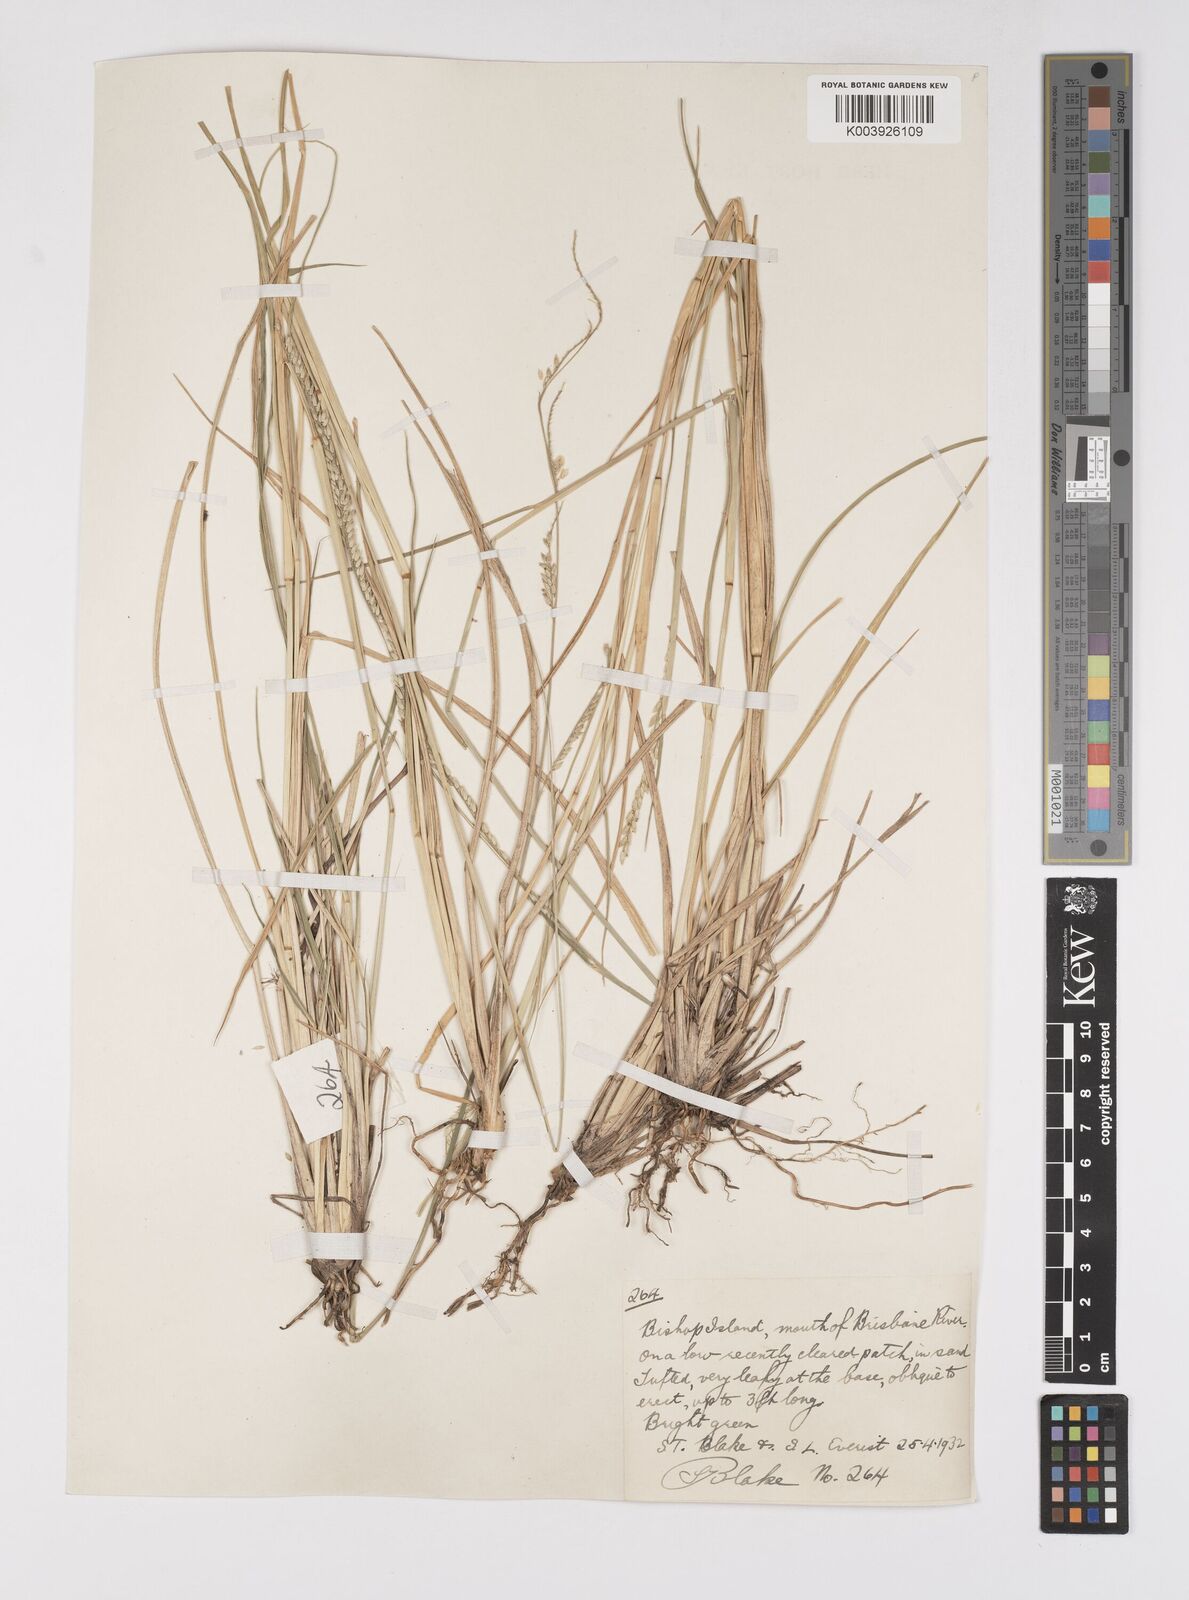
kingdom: Plantae
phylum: Tracheophyta
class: Liliopsida
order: Poales
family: Poaceae
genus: Eriochloa
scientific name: Eriochloa
